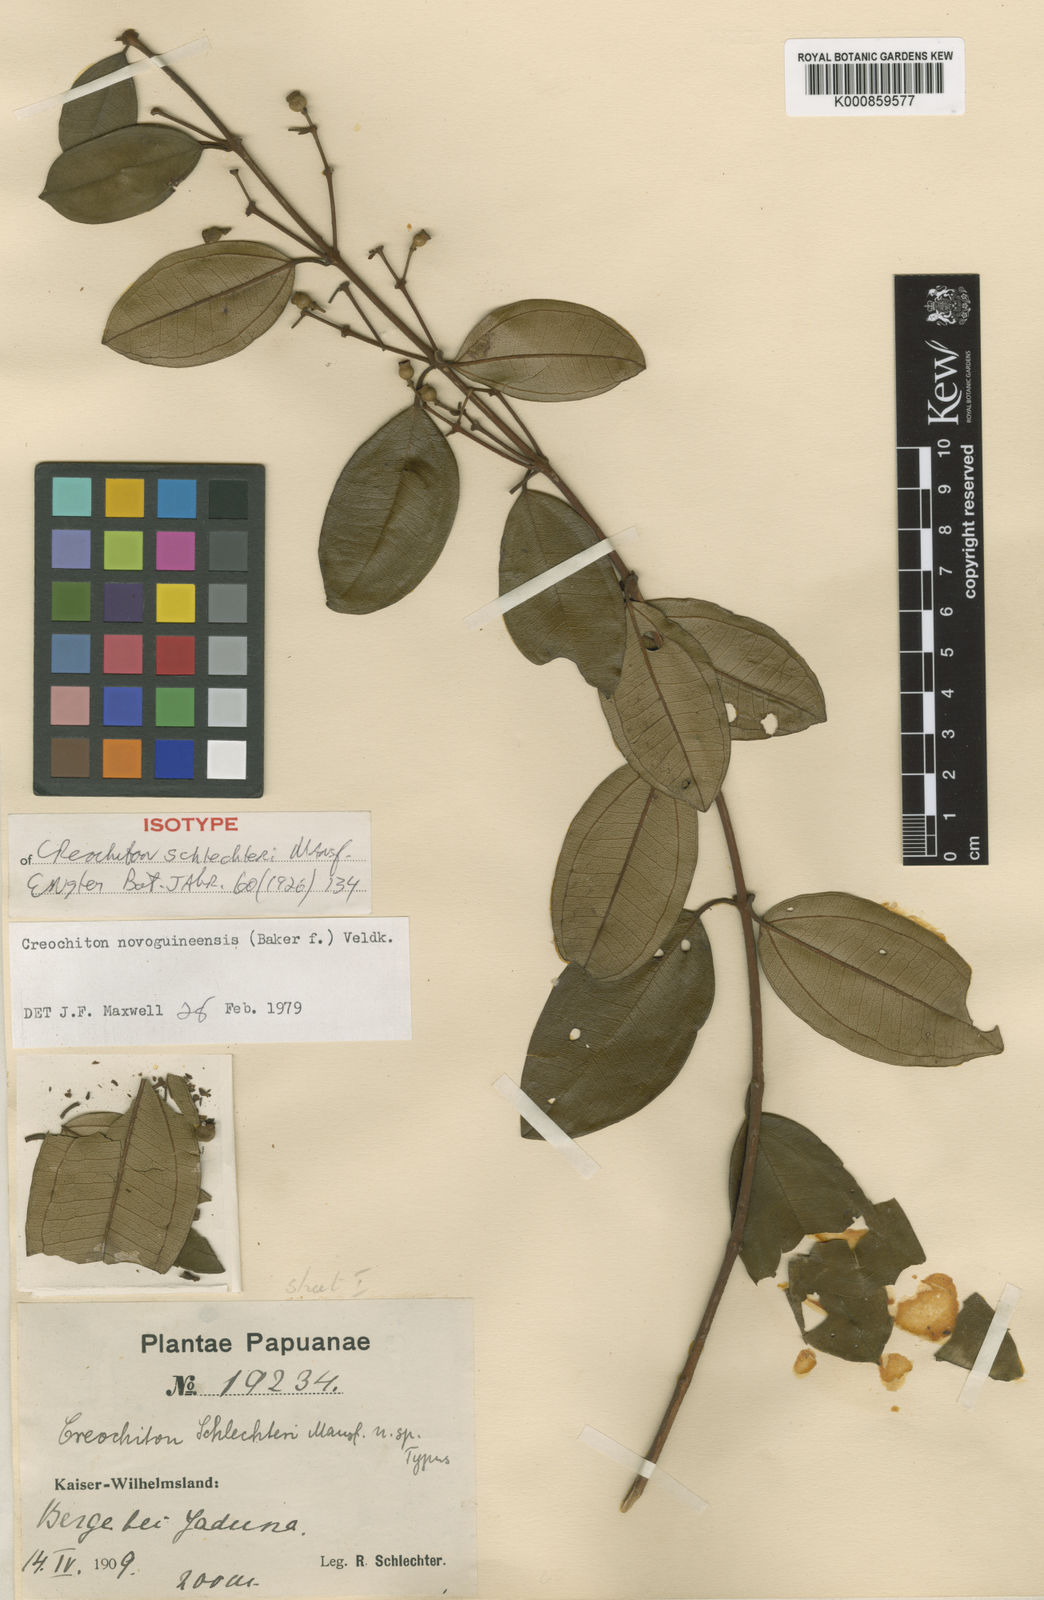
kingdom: Plantae
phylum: Tracheophyta
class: Magnoliopsida
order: Myrtales
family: Melastomataceae
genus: Creochiton
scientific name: Creochiton novoguineensis
